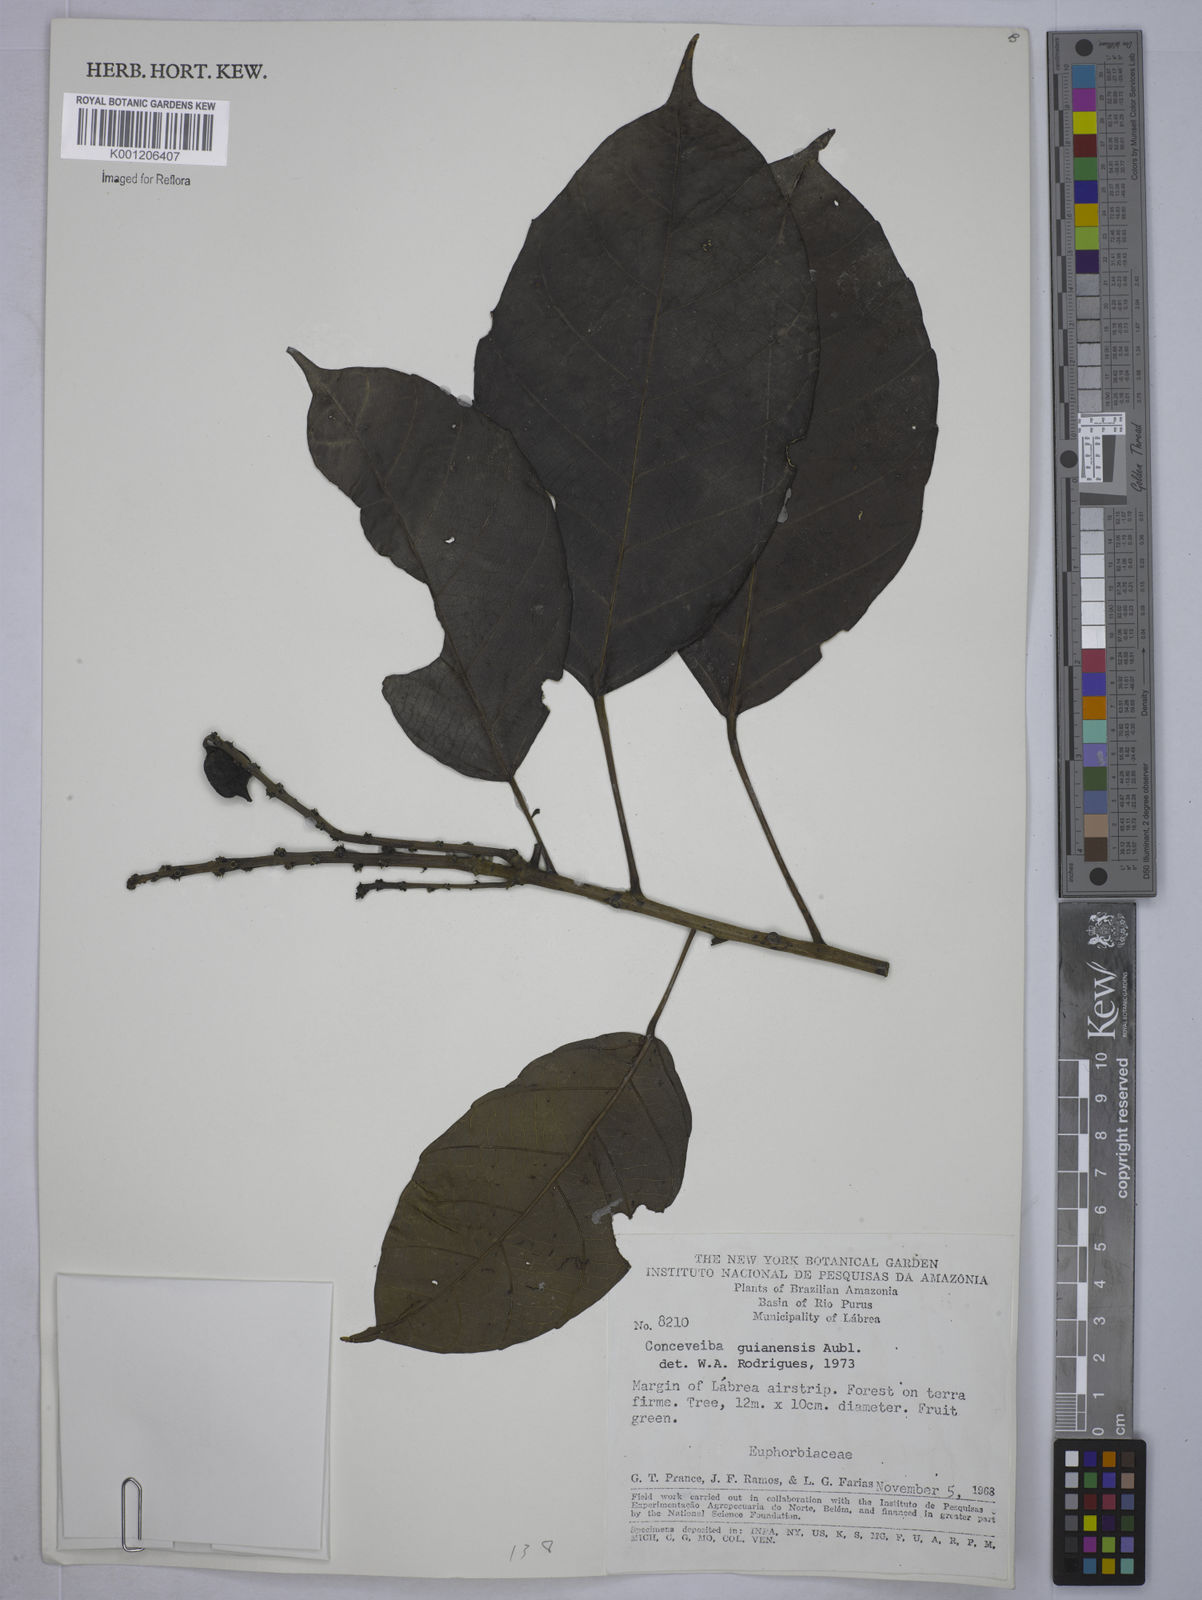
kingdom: Plantae
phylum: Tracheophyta
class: Magnoliopsida
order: Malpighiales
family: Euphorbiaceae
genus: Conceveiba
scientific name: Conceveiba guianensis
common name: Poatoru
